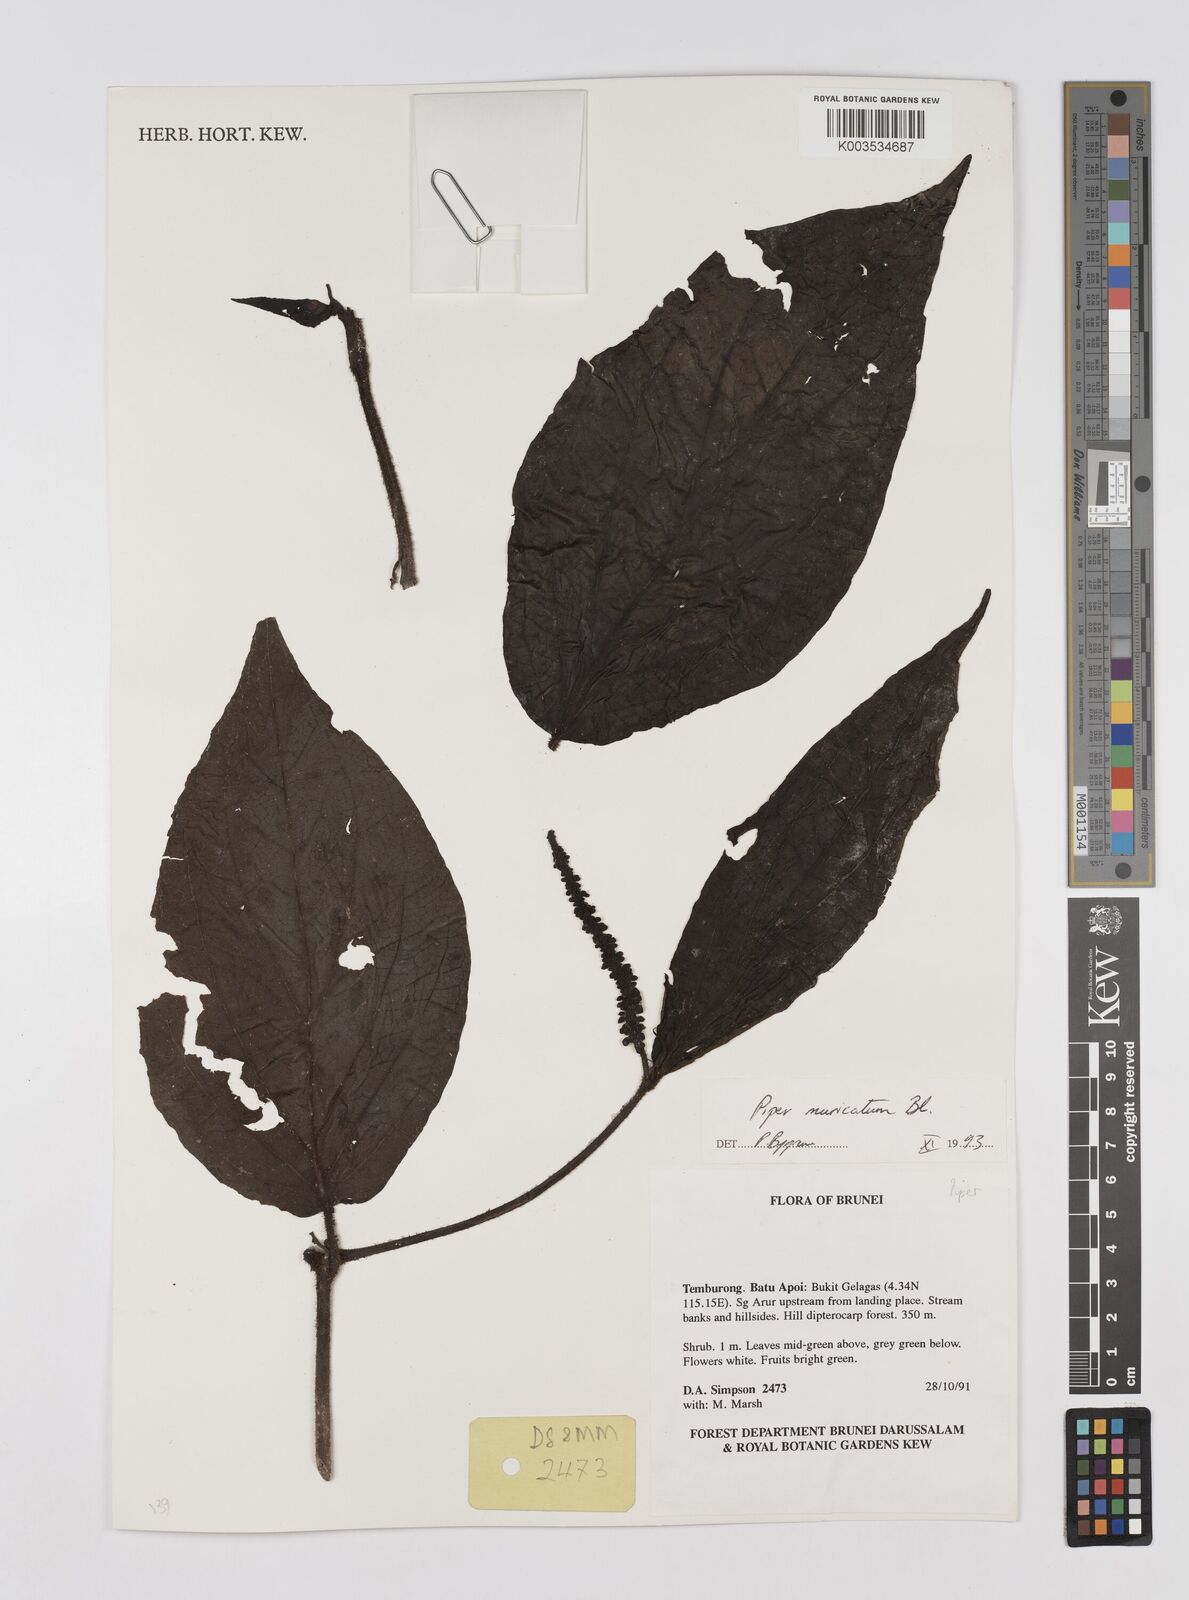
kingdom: Plantae
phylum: Tracheophyta
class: Magnoliopsida
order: Piperales
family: Piperaceae
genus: Piper
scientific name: Piper muricatum
